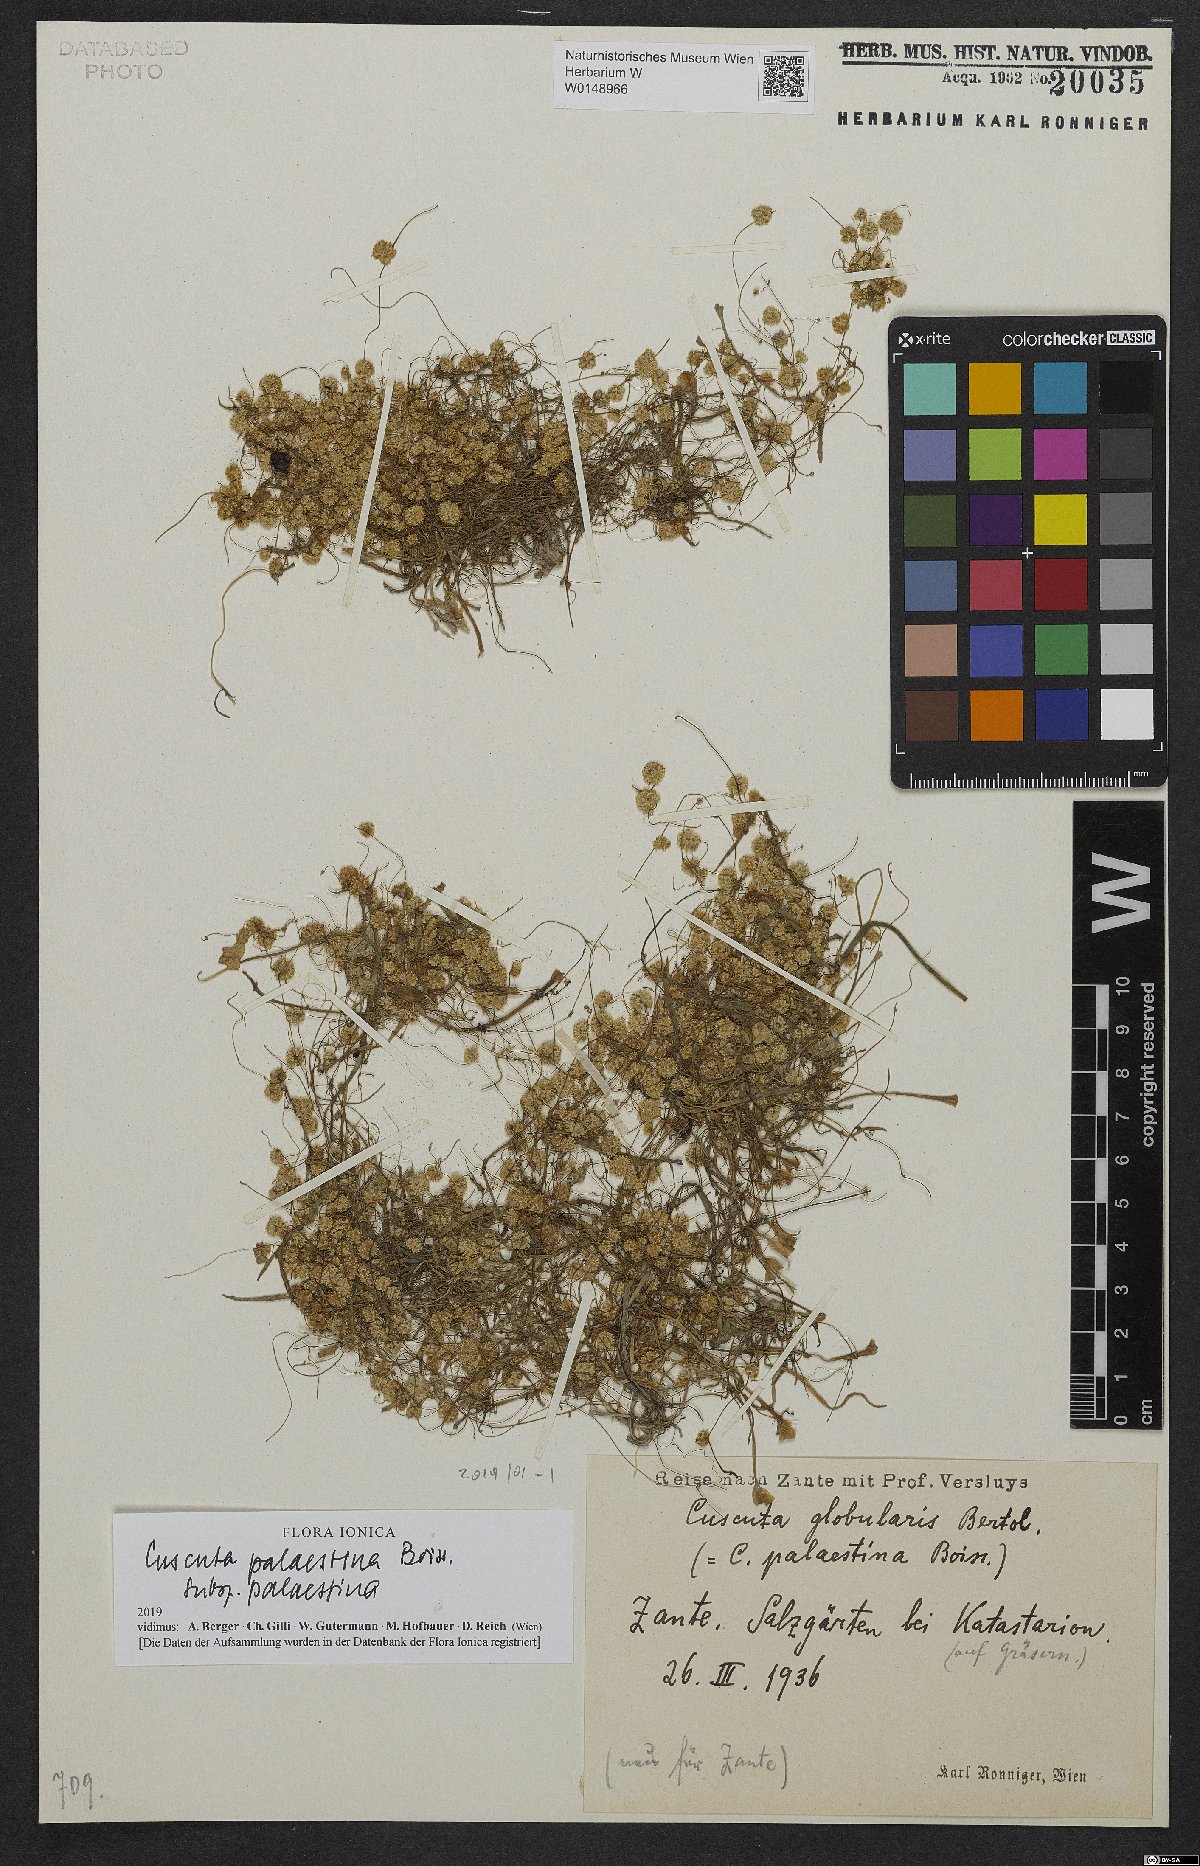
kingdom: Plantae
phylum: Tracheophyta
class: Magnoliopsida
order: Solanales
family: Convolvulaceae
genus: Cuscuta
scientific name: Cuscuta palaestina
